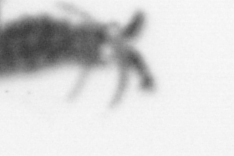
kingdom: Animalia
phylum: Annelida
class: Polychaeta
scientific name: Polychaeta
